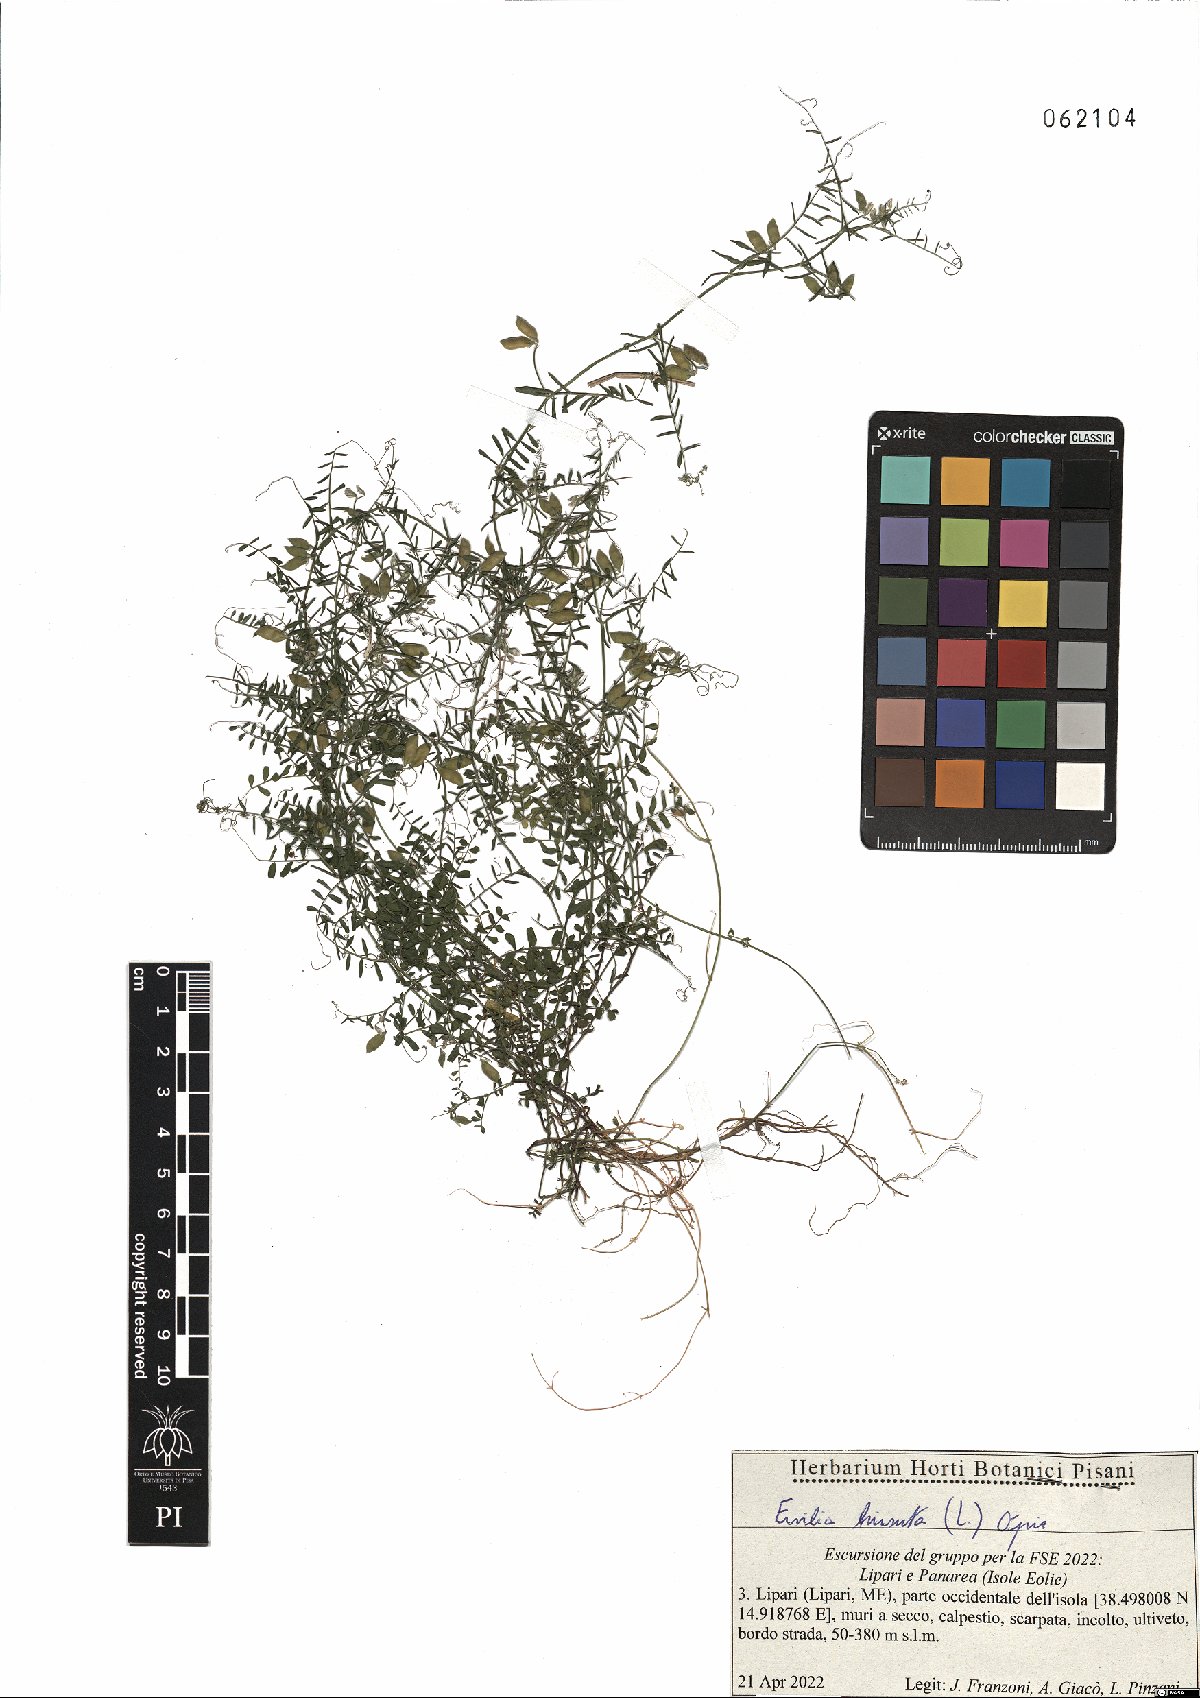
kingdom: Plantae
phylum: Tracheophyta
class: Magnoliopsida
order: Fabales
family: Fabaceae
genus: Vicia
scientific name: Vicia hirsuta
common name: Tiny vetch
